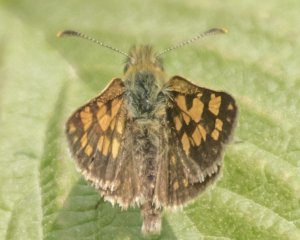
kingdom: Animalia
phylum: Arthropoda
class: Insecta
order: Lepidoptera
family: Hesperiidae
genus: Carterocephalus
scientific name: Carterocephalus palaemon
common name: Chequered Skipper
